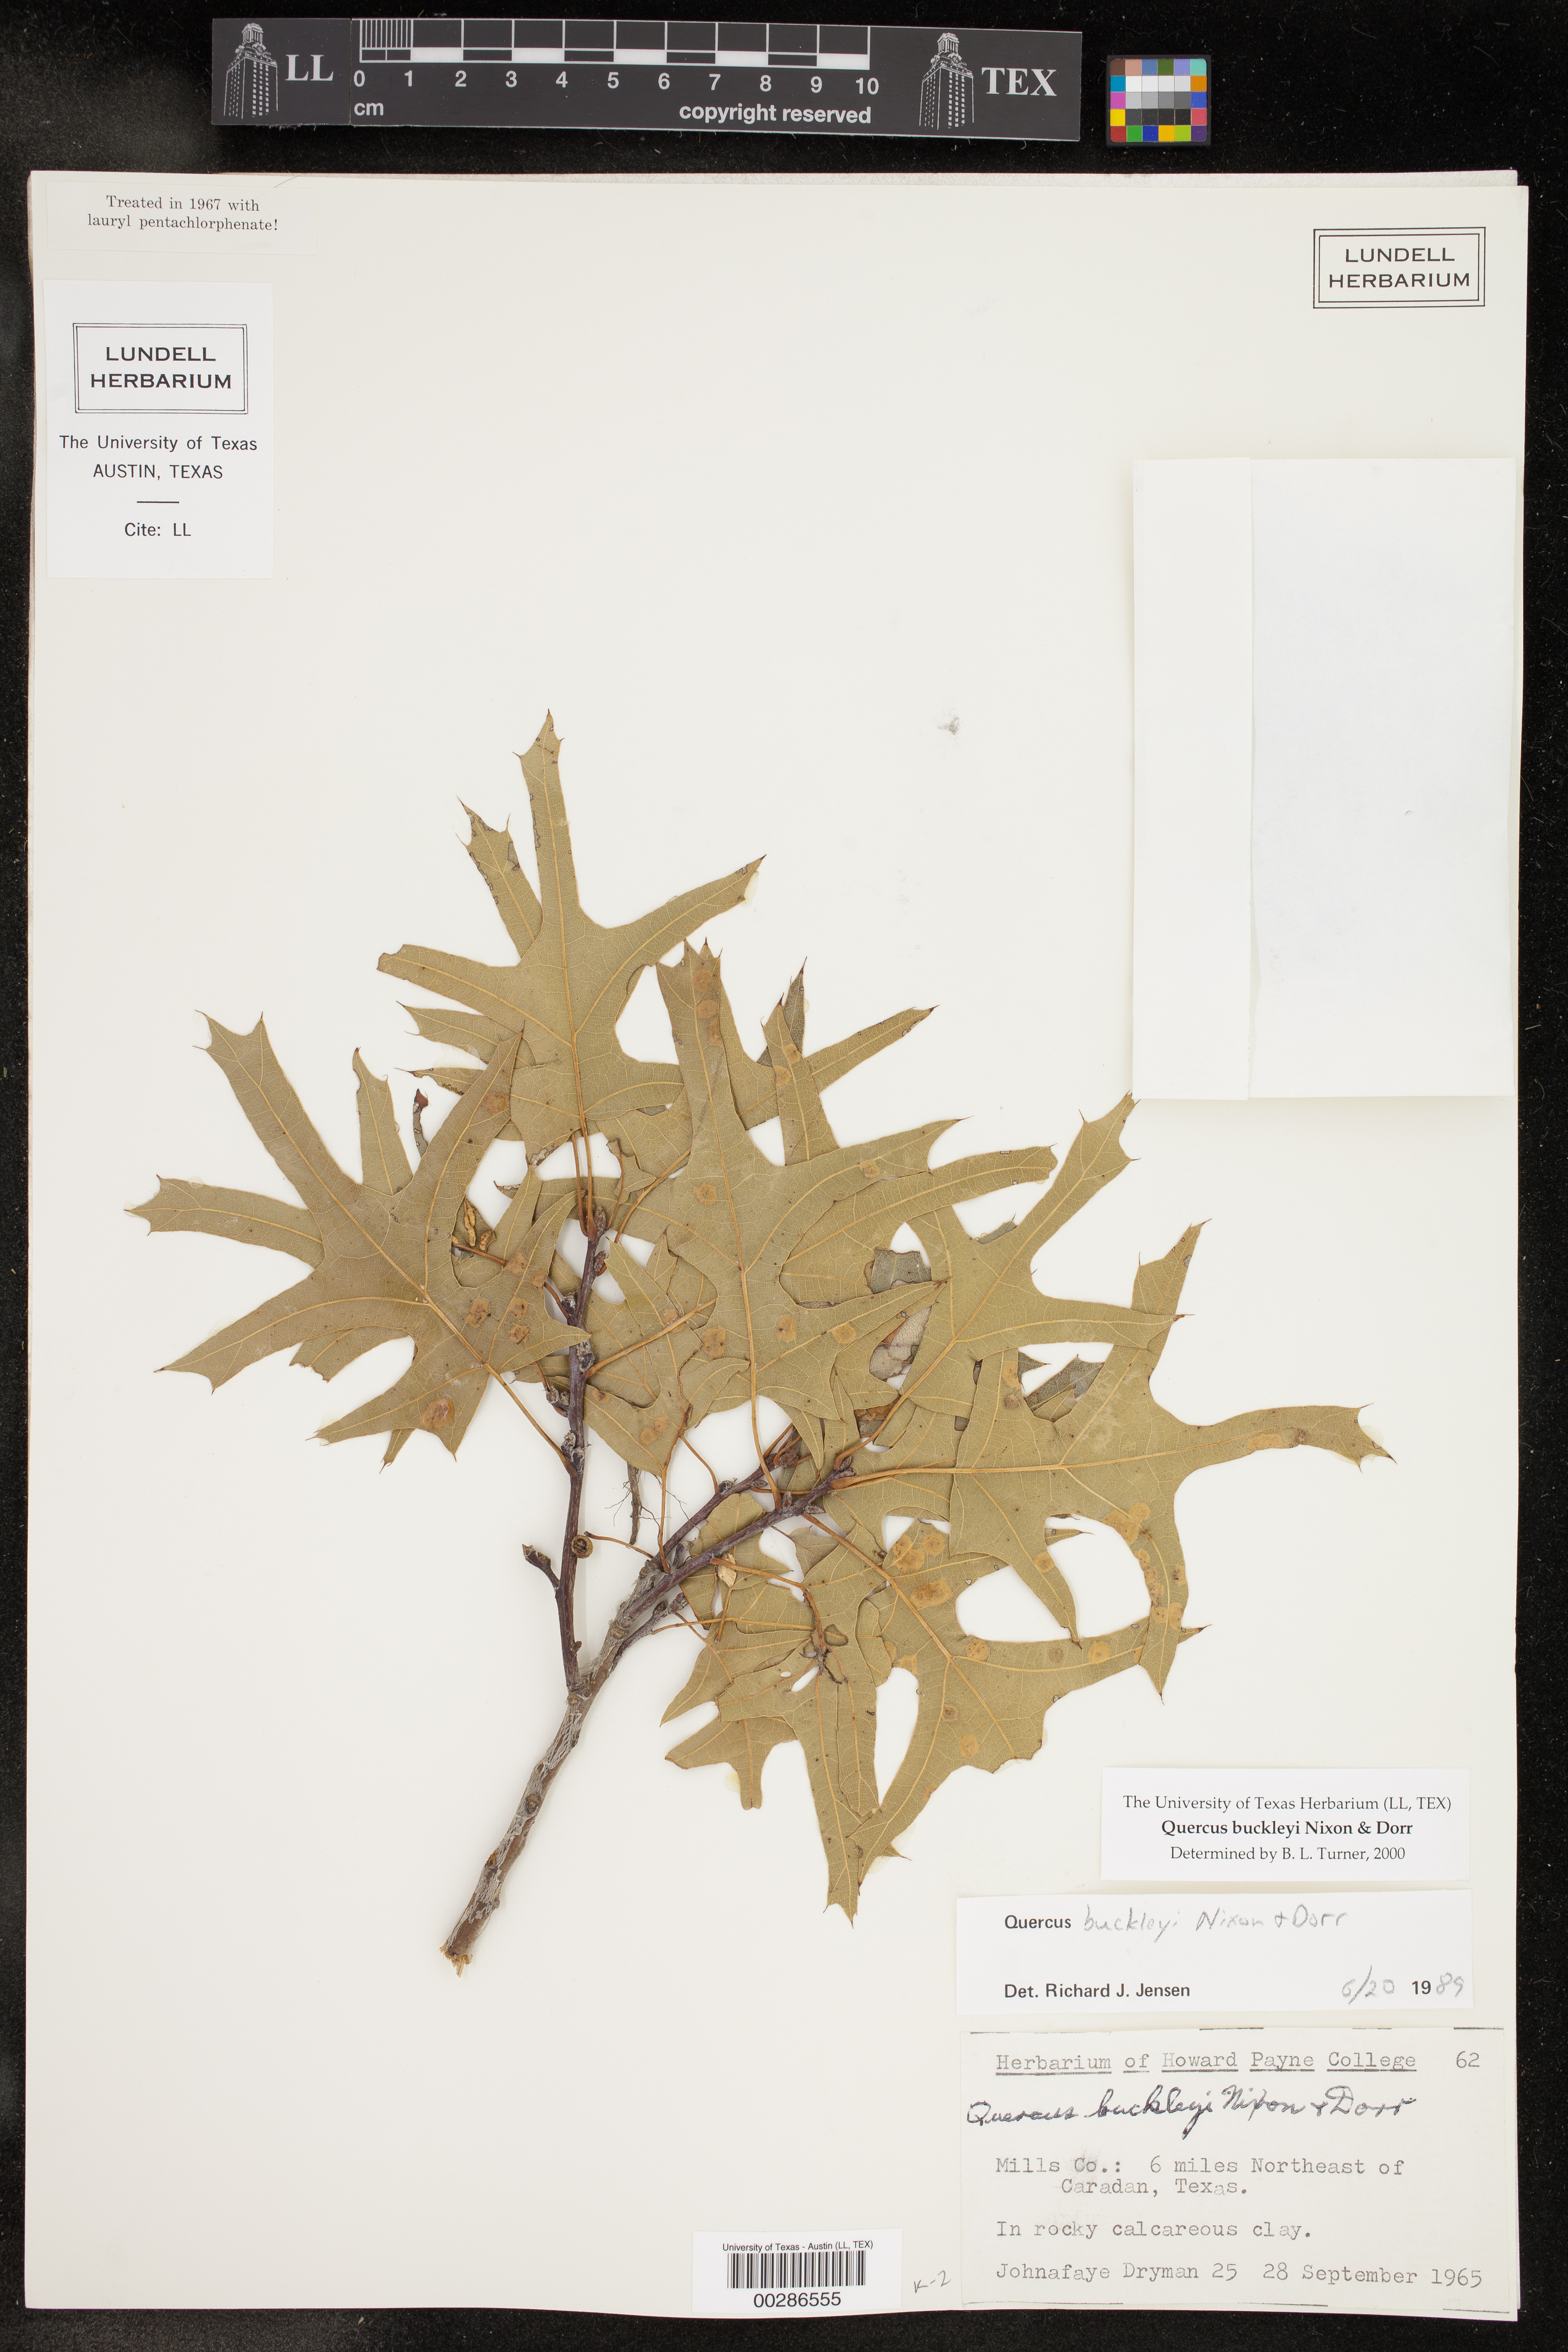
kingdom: Plantae
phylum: Tracheophyta
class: Magnoliopsida
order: Fagales
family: Fagaceae
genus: Quercus
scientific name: Quercus buckleyi
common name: Buckley oak
